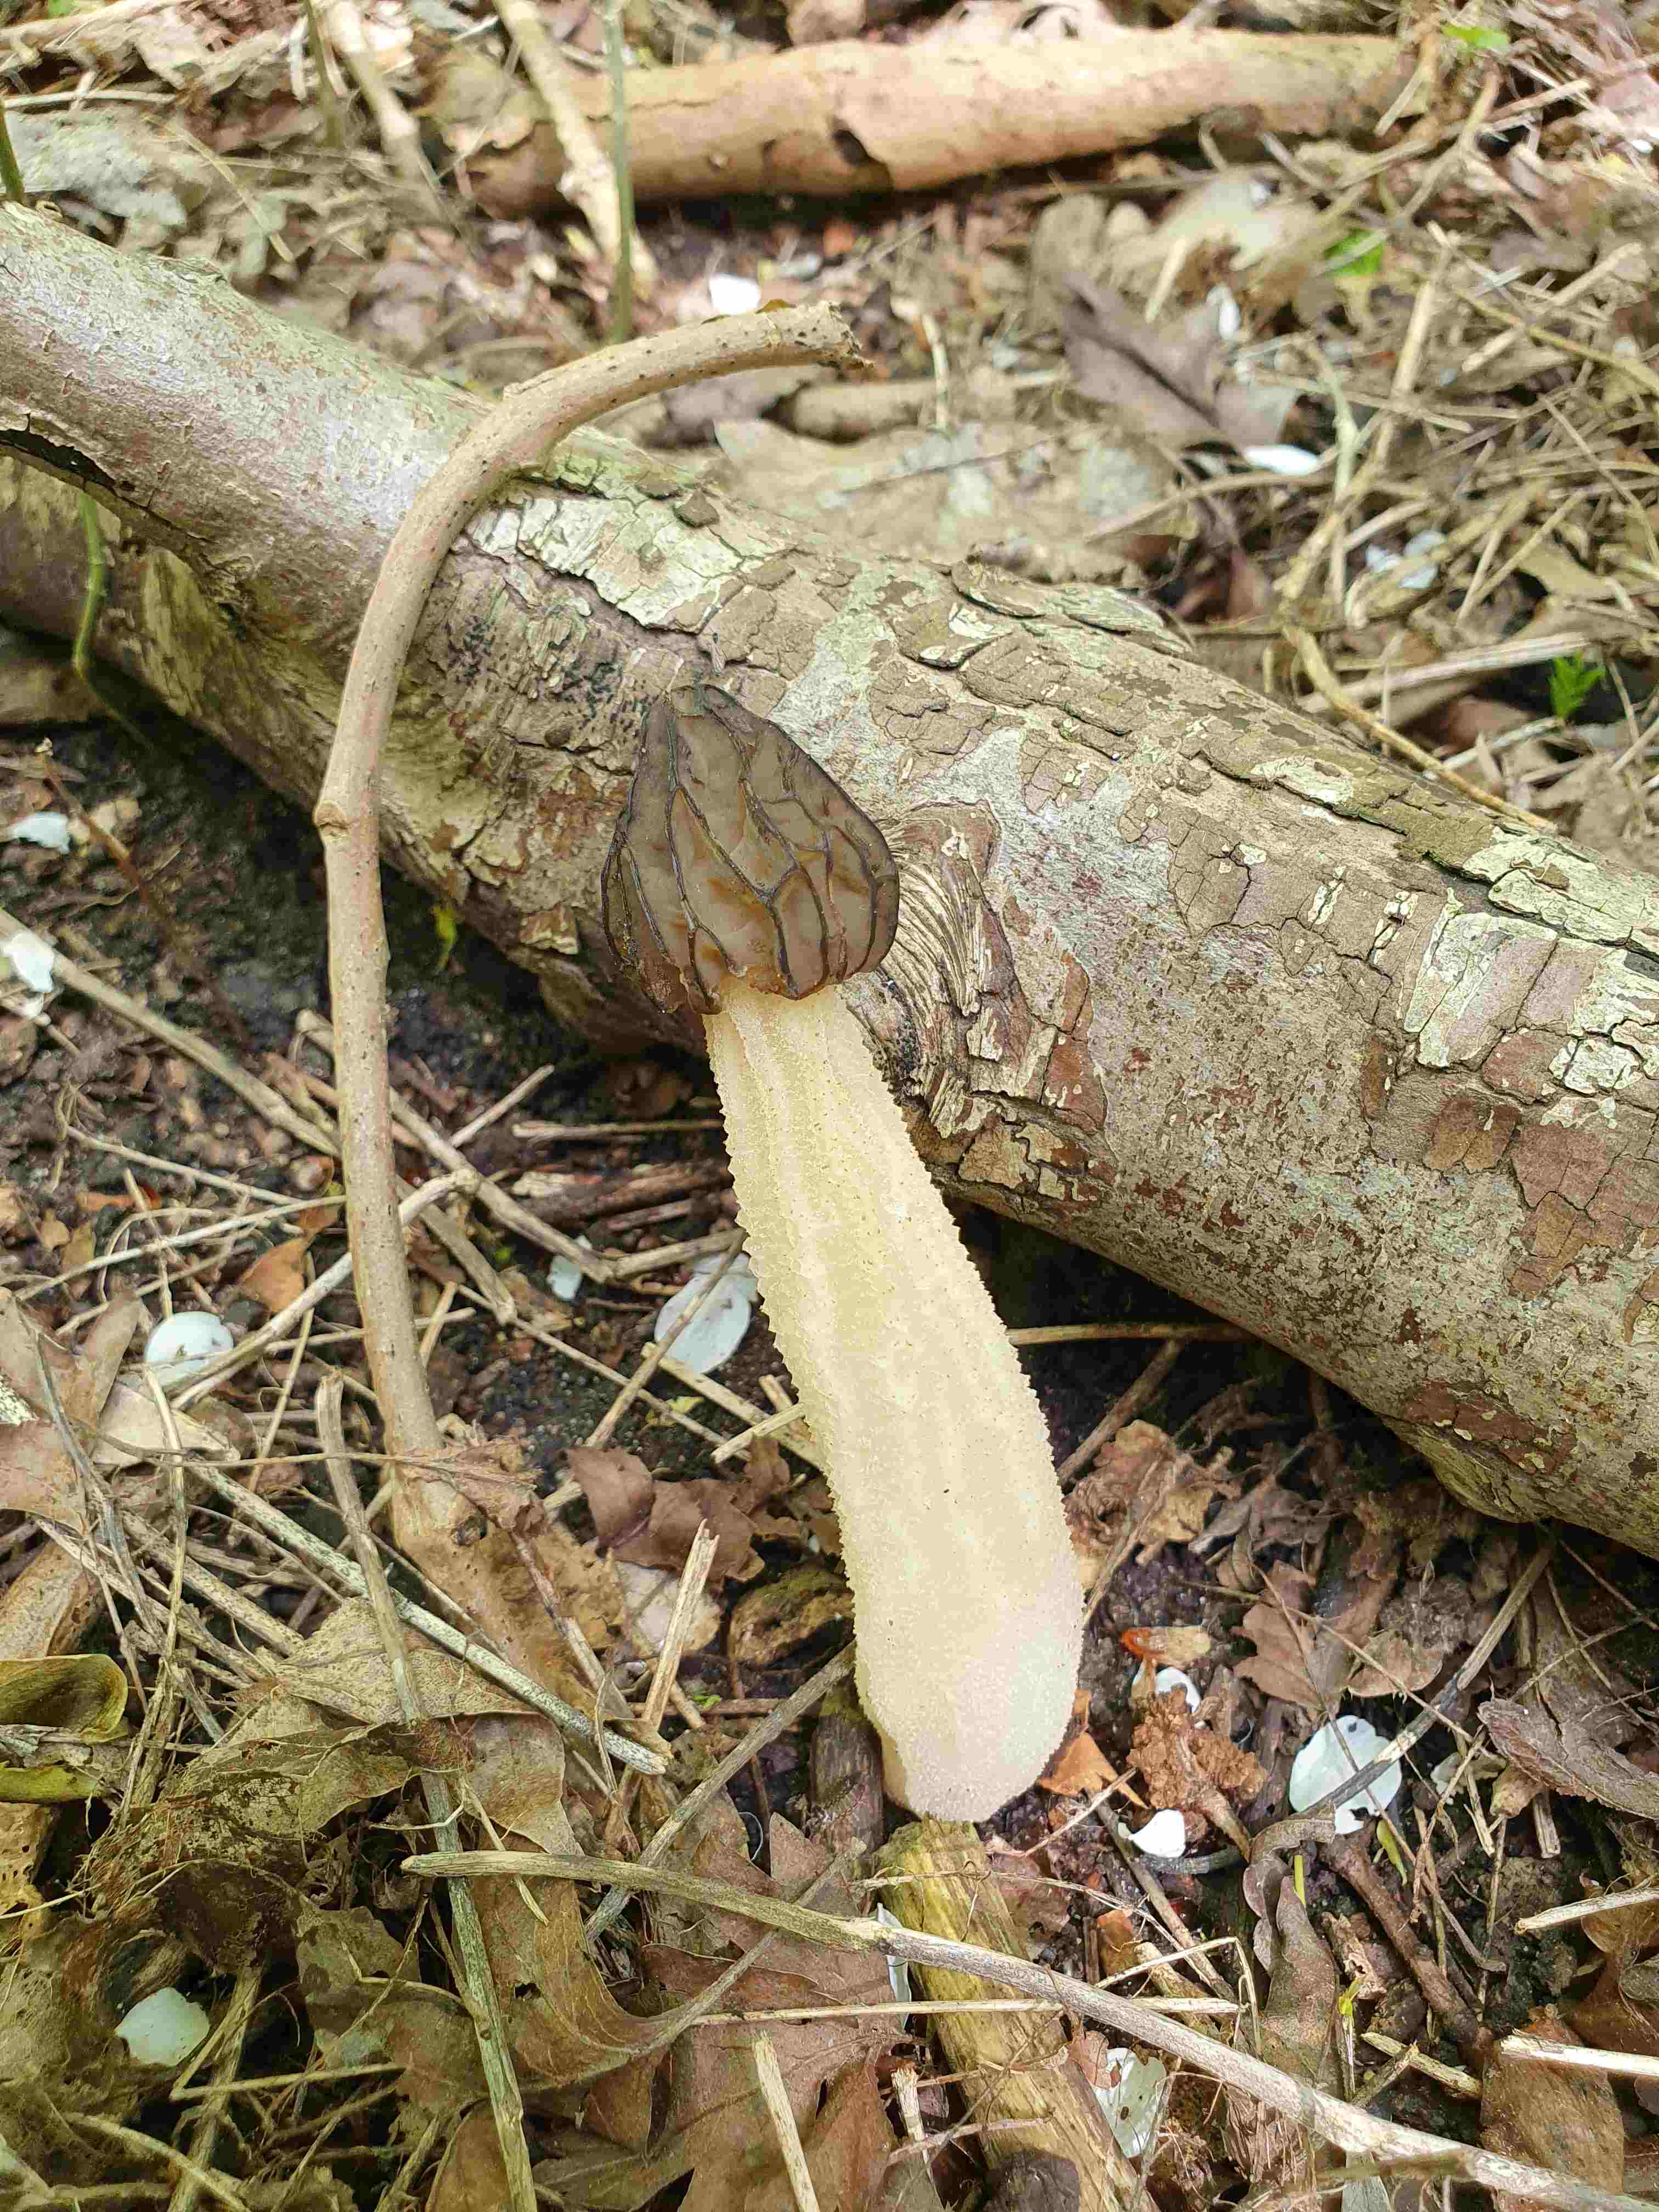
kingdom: Fungi
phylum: Ascomycota
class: Pezizomycetes
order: Pezizales
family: Morchellaceae
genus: Morchella
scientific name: Morchella semilibera
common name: hætte-morkel
